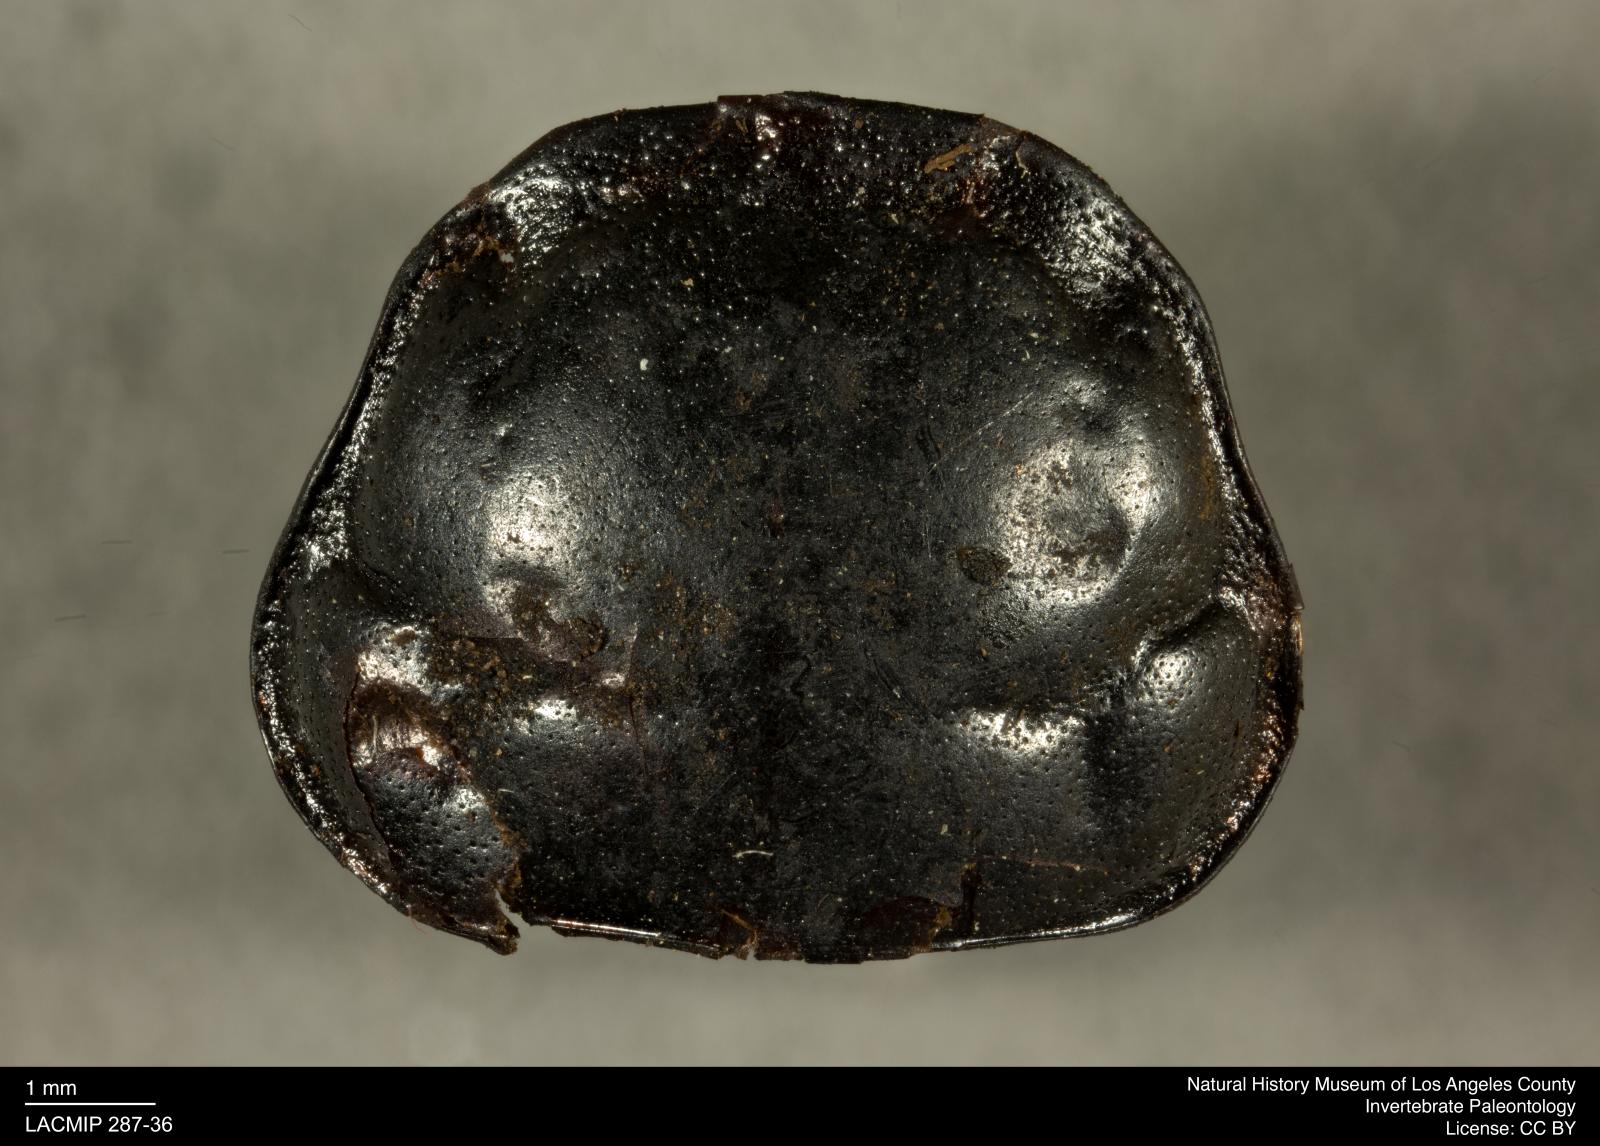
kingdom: Animalia
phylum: Arthropoda
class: Insecta
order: Coleoptera
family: Staphylinidae
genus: Nicrophorus
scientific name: Nicrophorus marginatus
